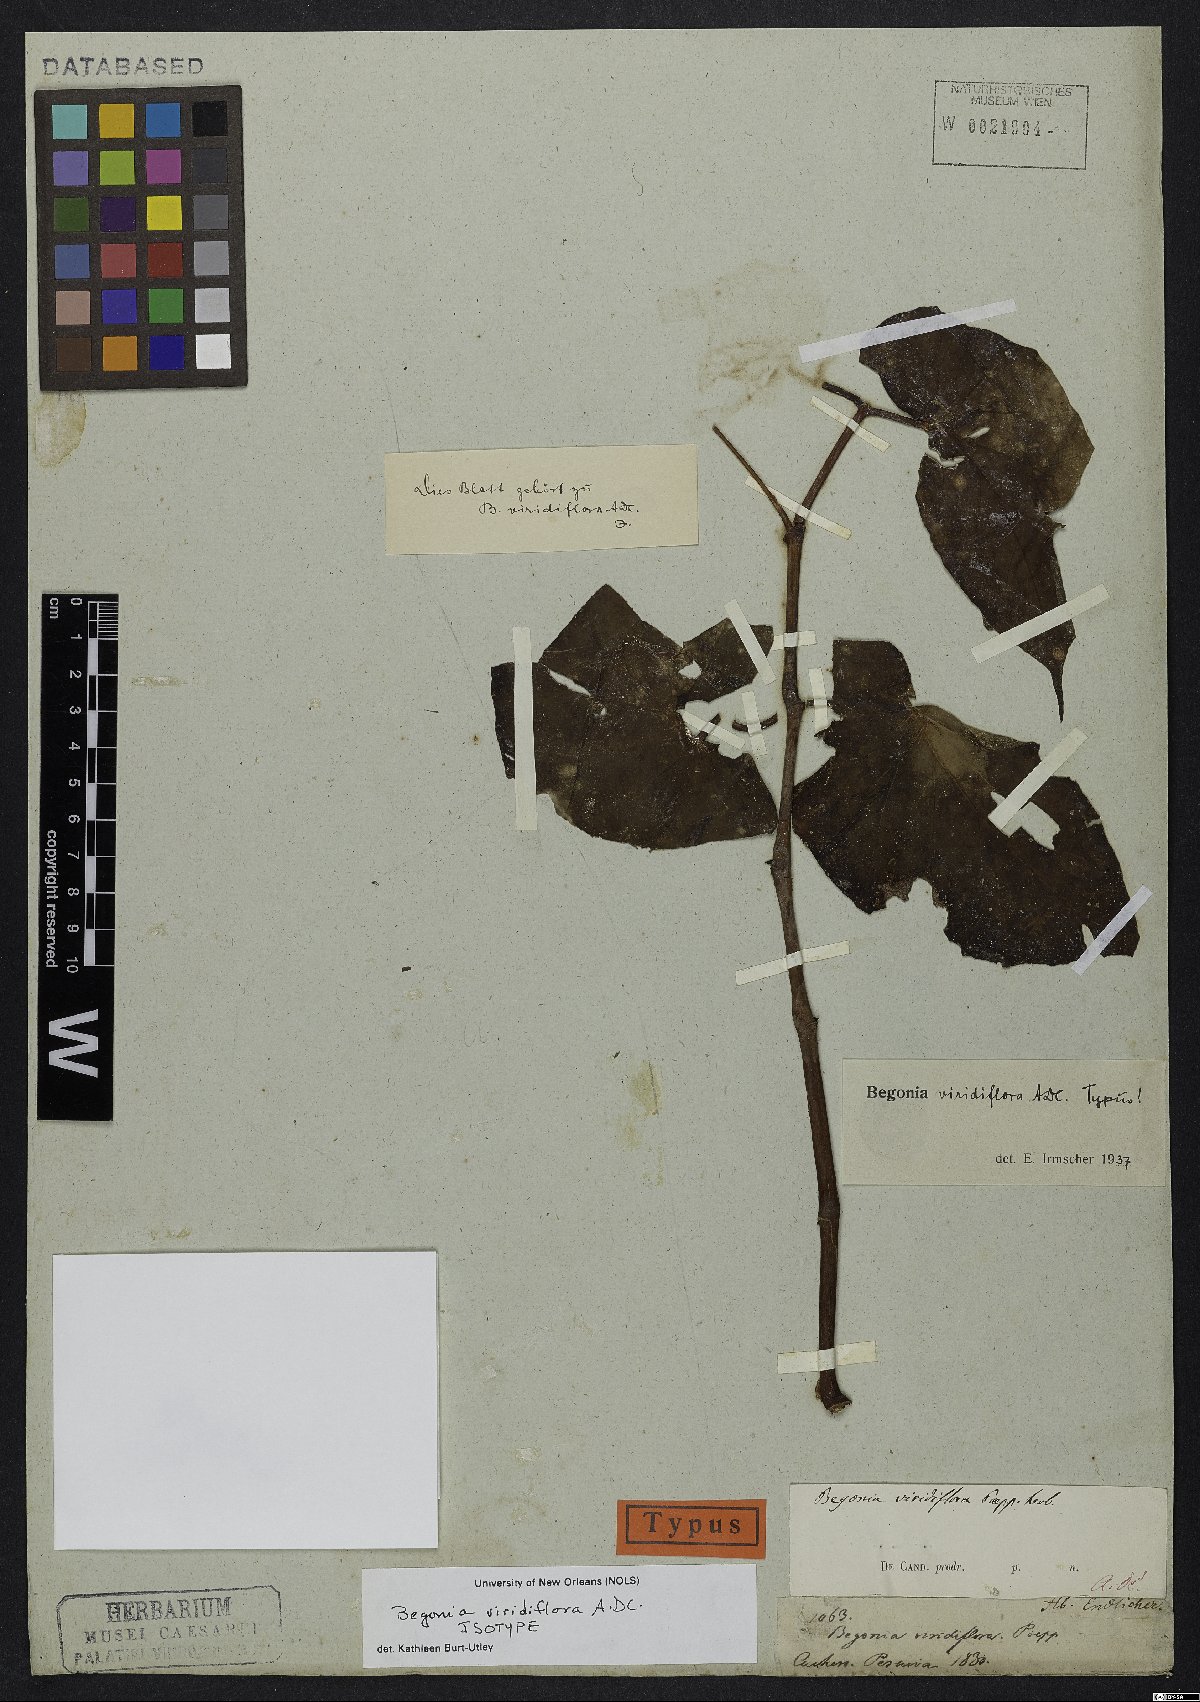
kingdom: Plantae
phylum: Tracheophyta
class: Magnoliopsida
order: Cucurbitales
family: Begoniaceae
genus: Begonia
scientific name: Begonia viridiflora
